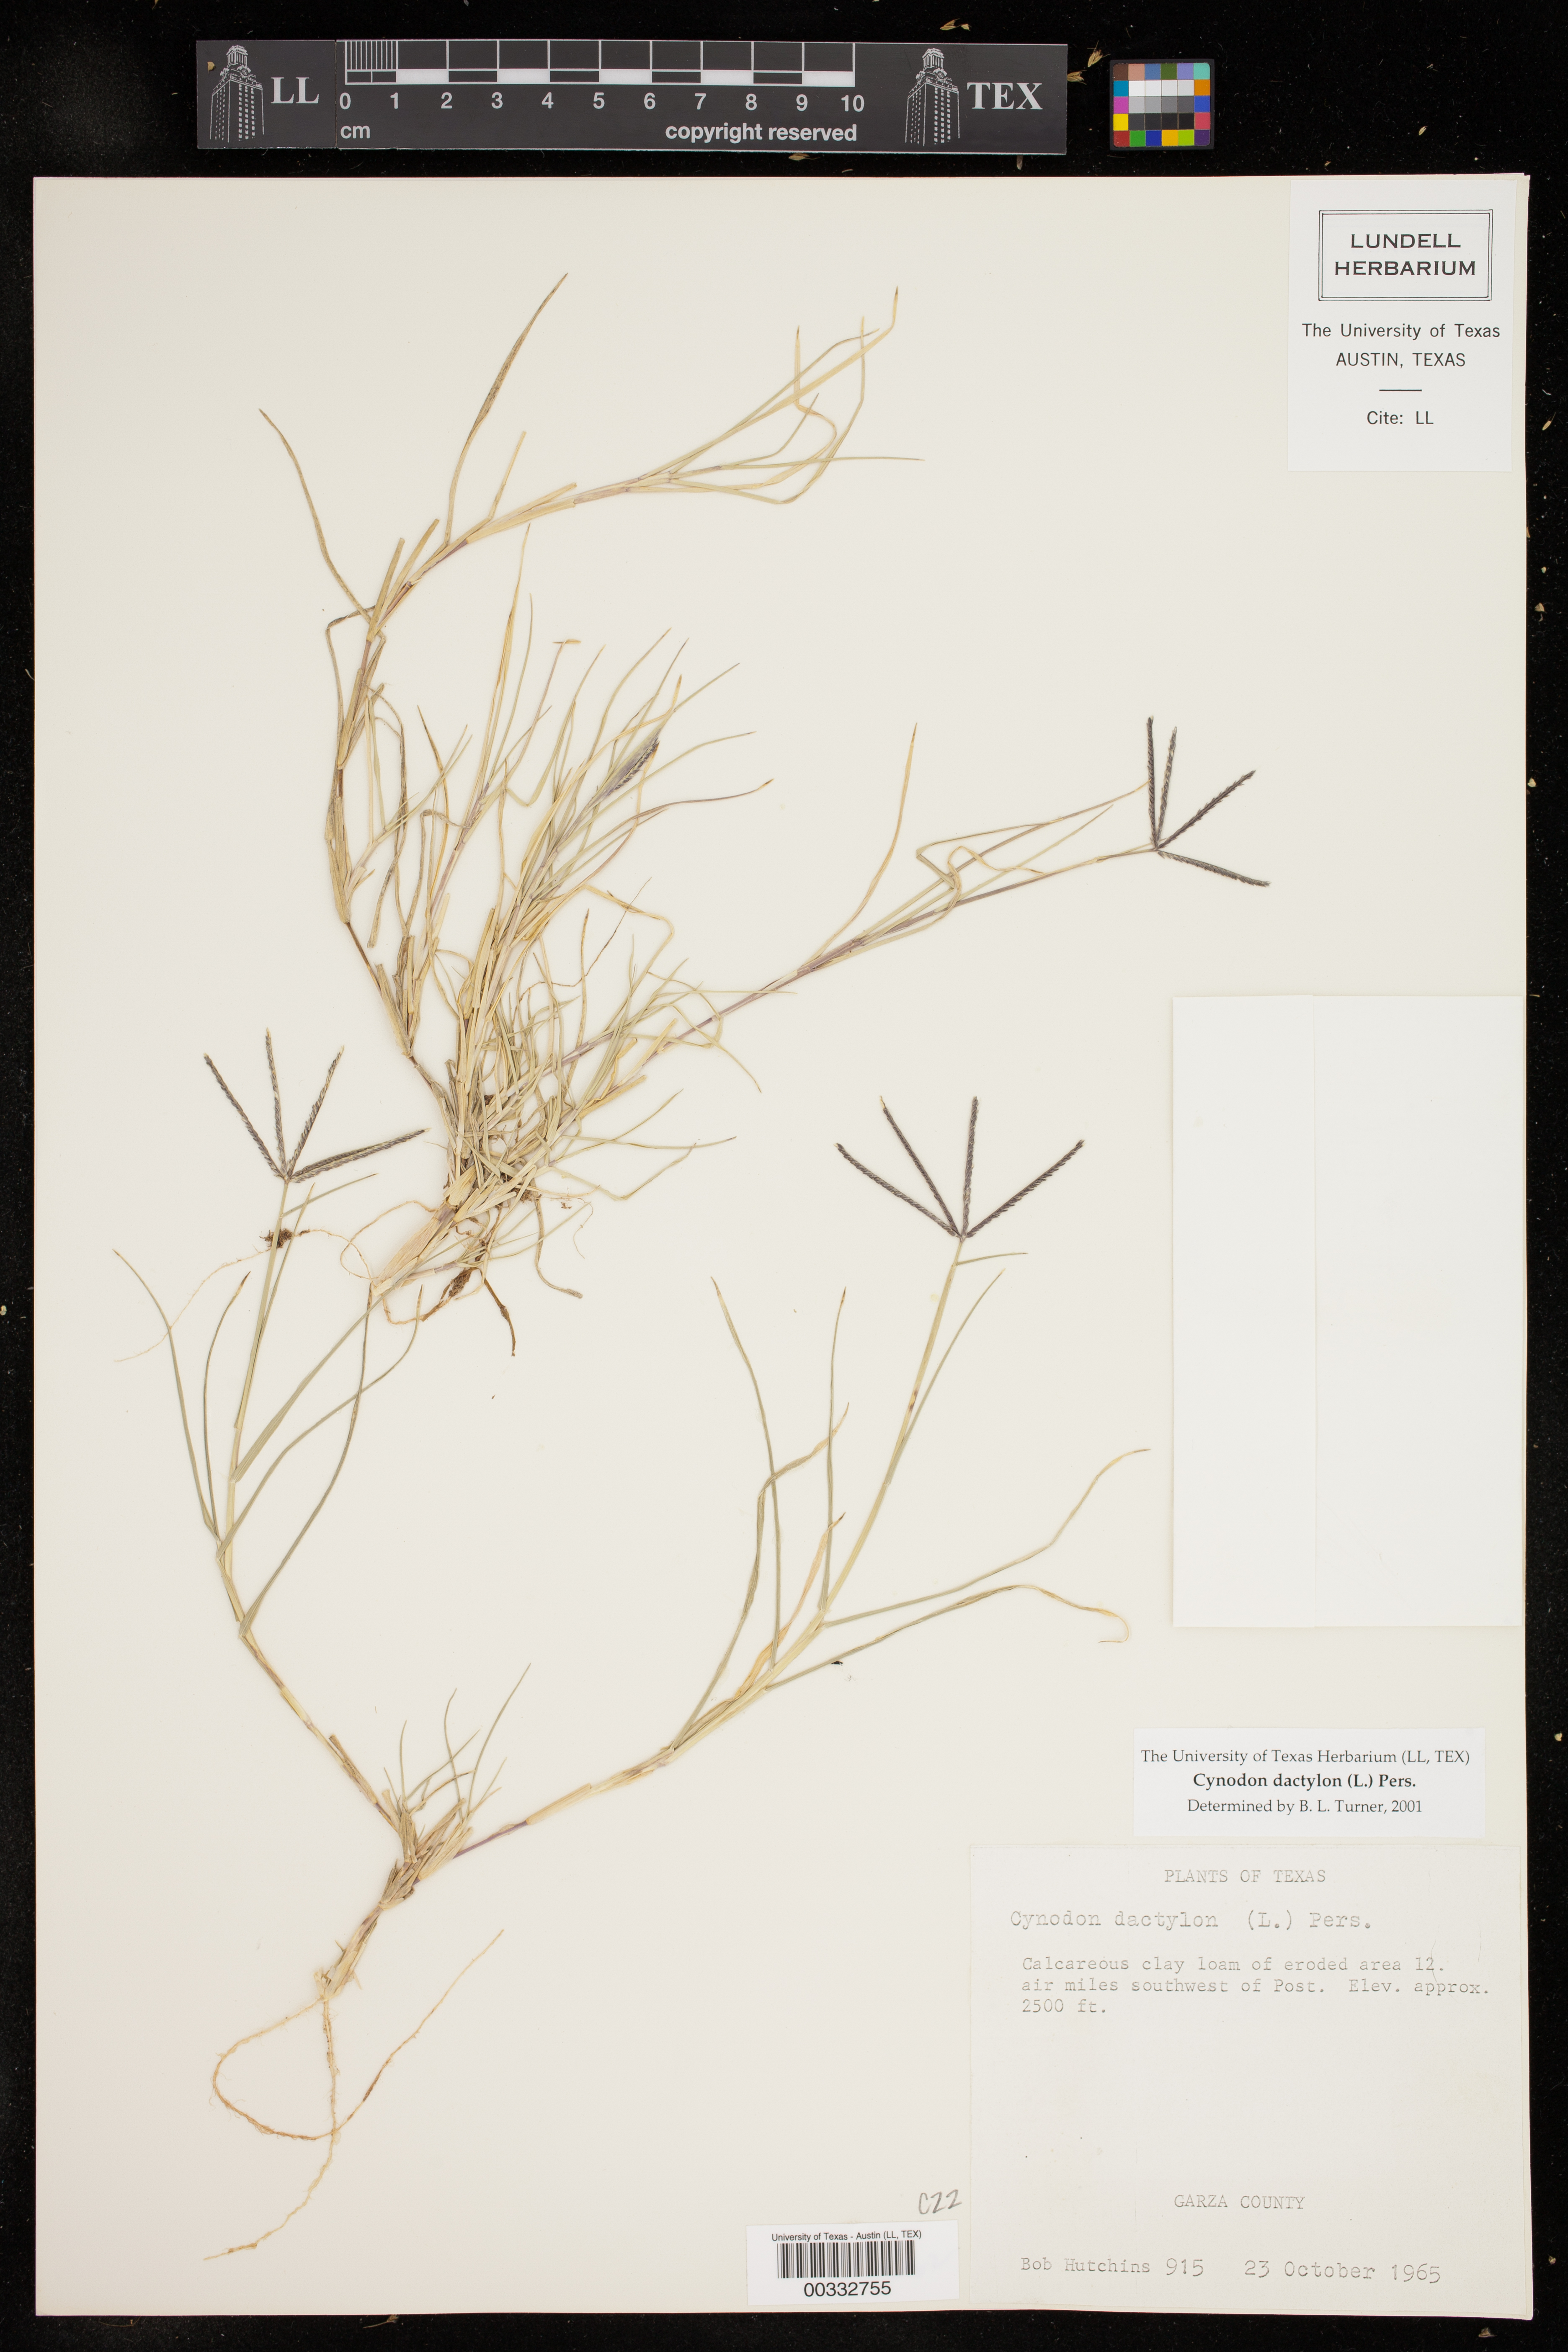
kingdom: Plantae
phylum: Tracheophyta
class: Liliopsida
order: Poales
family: Poaceae
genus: Cynodon
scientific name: Cynodon dactylon
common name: Bermuda grass
